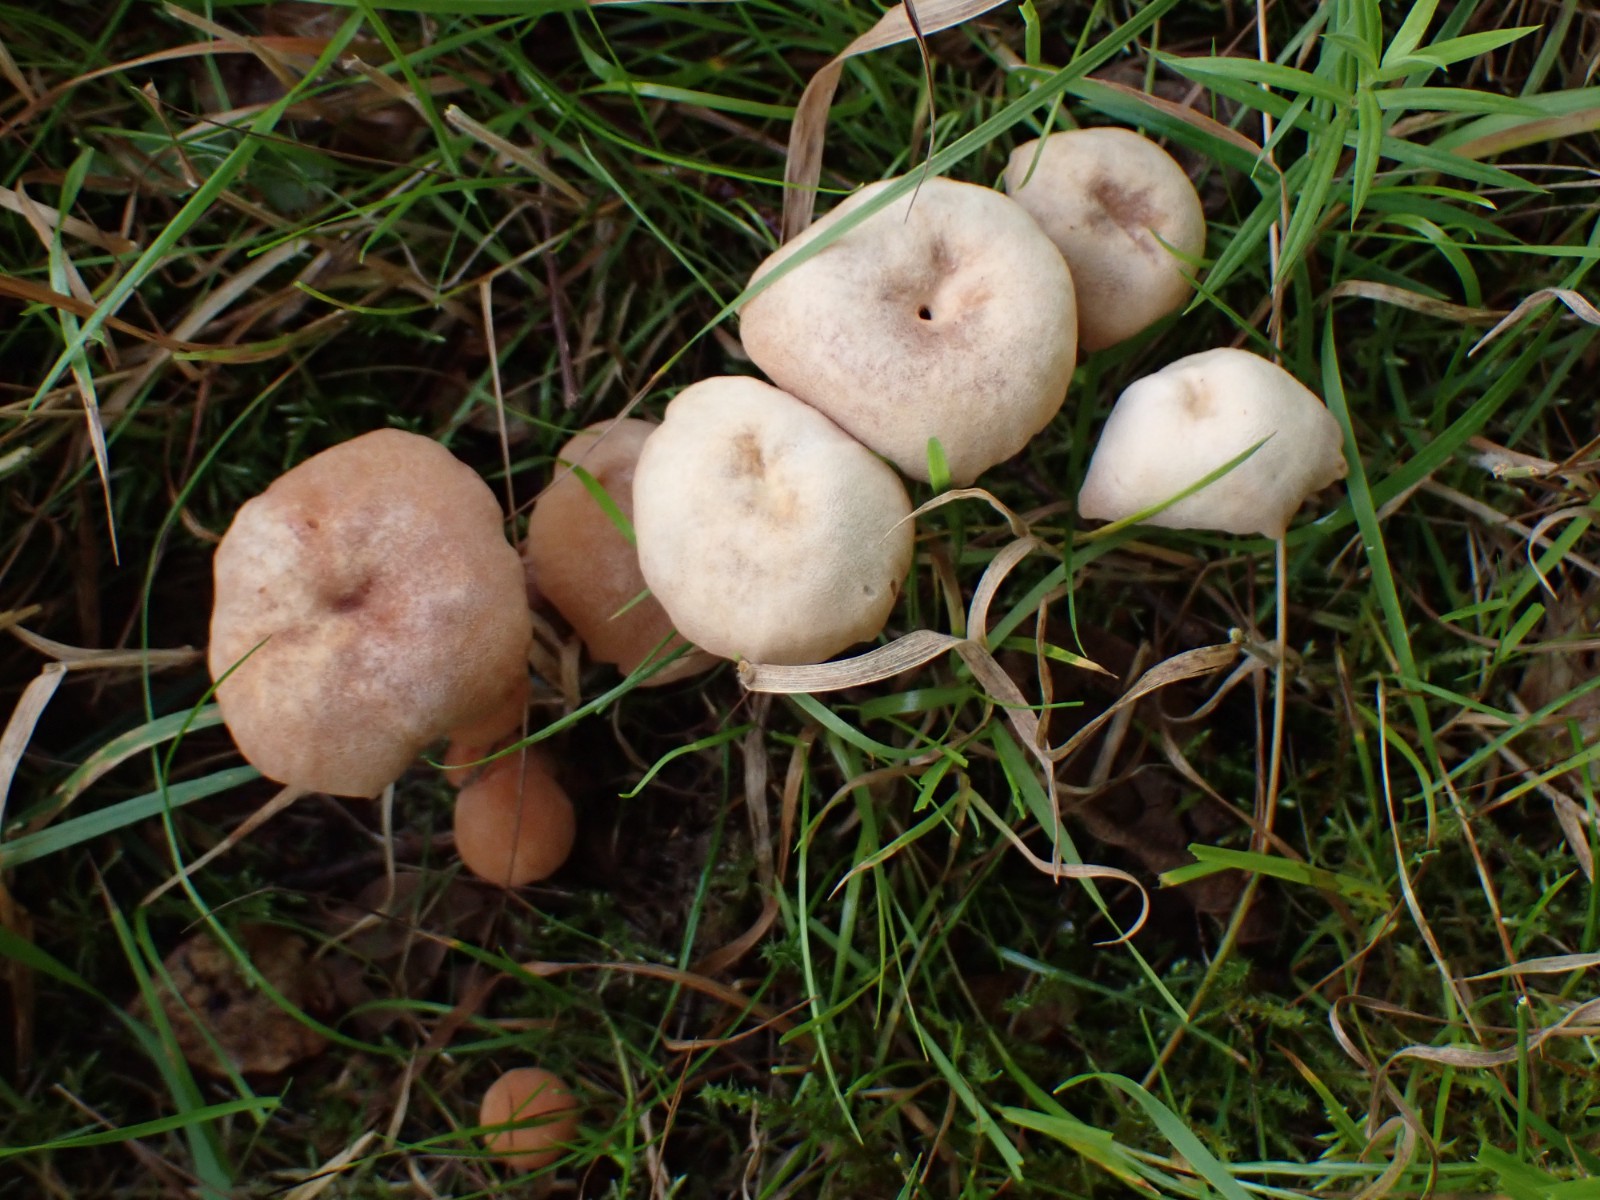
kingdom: Fungi
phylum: Basidiomycota
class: Agaricomycetes
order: Agaricales
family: Hydnangiaceae
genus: Laccaria
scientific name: Laccaria proxima
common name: stor ametysthat
